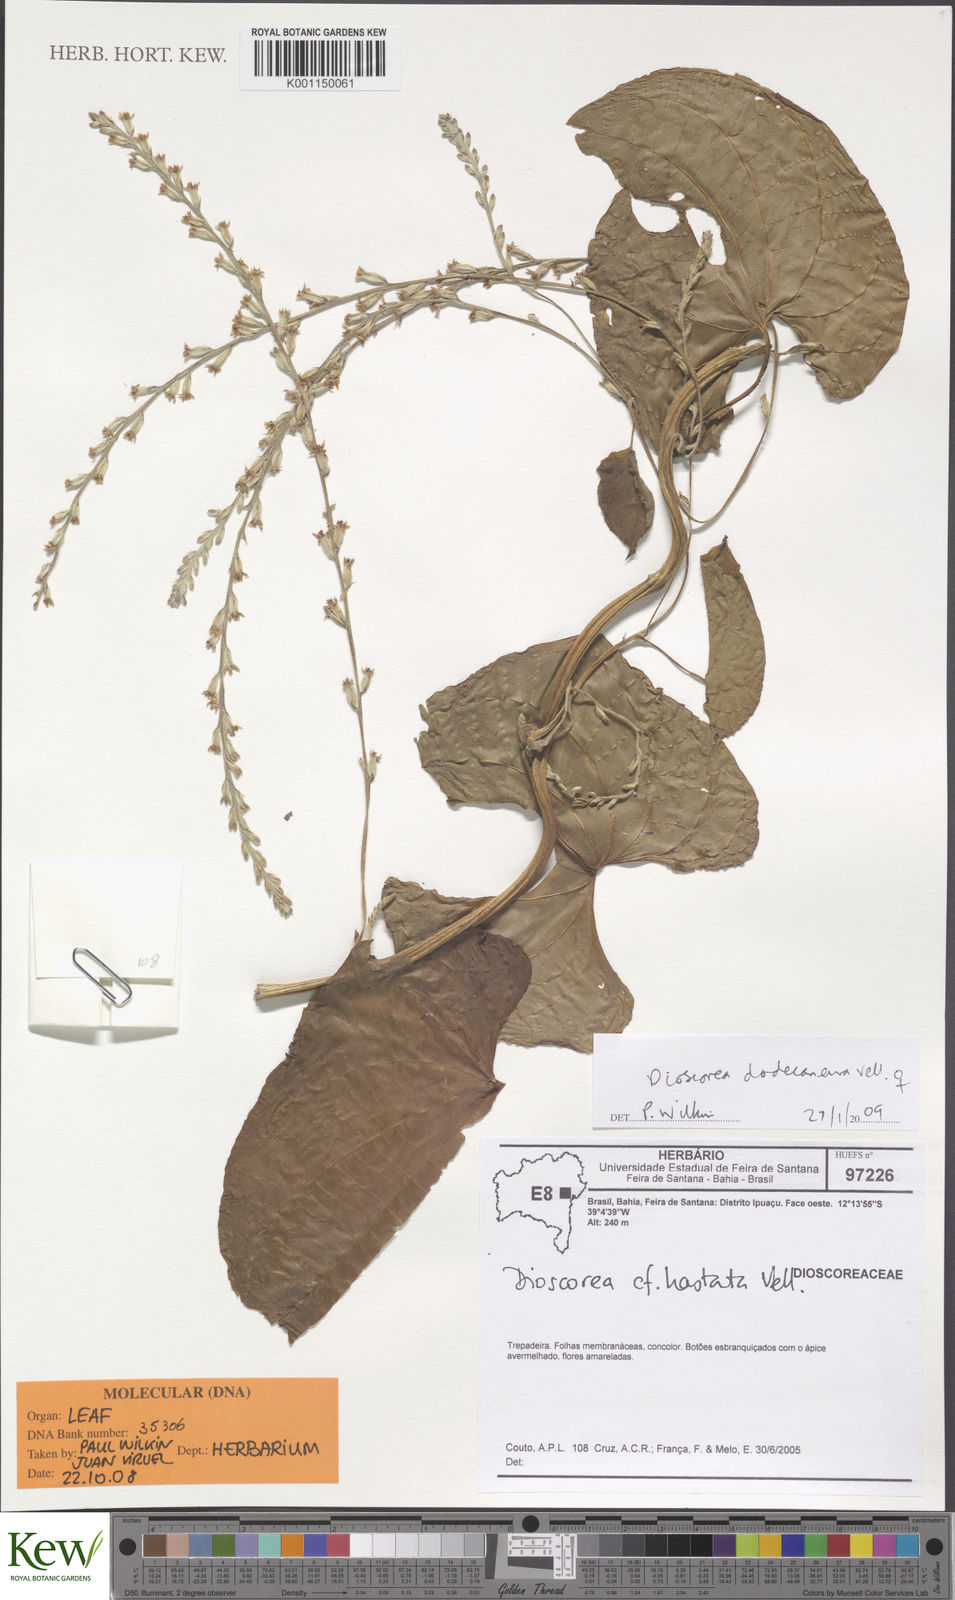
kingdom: Plantae
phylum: Tracheophyta
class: Liliopsida
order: Dioscoreales
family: Dioscoreaceae
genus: Dioscorea
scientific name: Dioscorea dodecaneura
